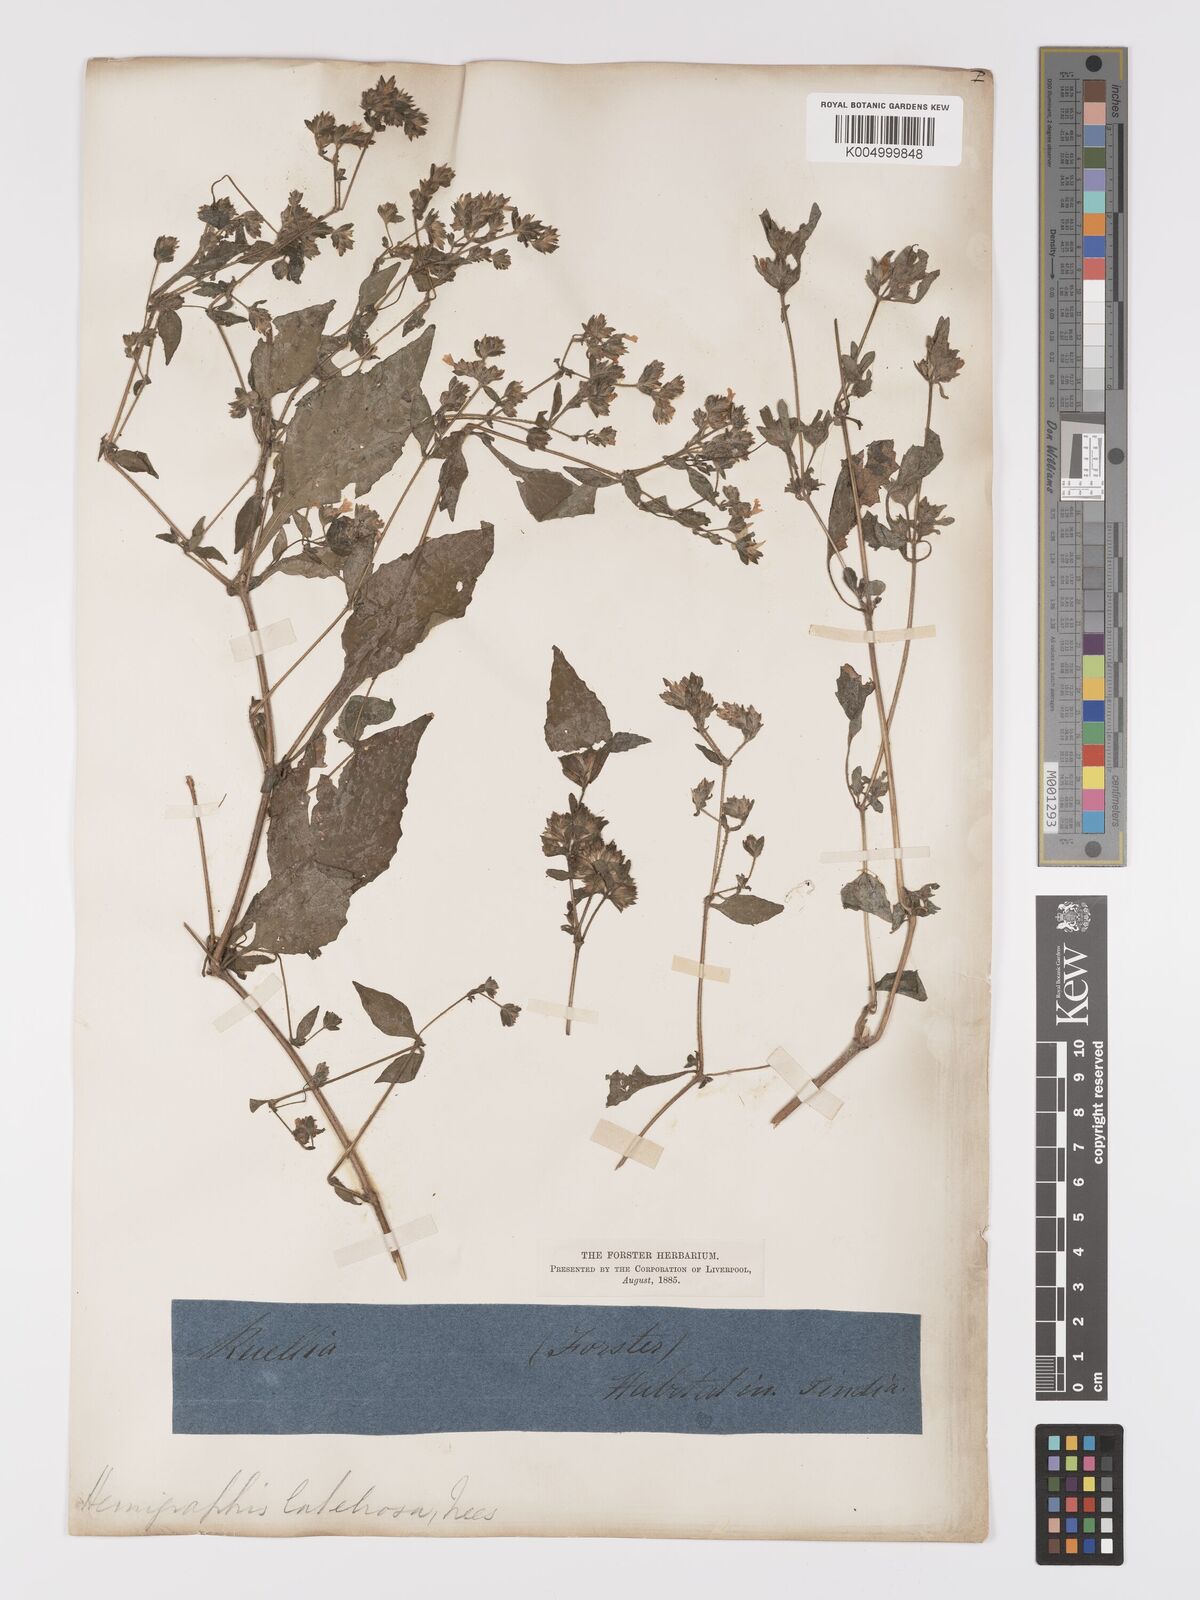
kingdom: Plantae
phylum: Tracheophyta
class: Magnoliopsida
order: Lamiales
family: Acanthaceae
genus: Strobilanthes
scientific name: Strobilanthes pavala
